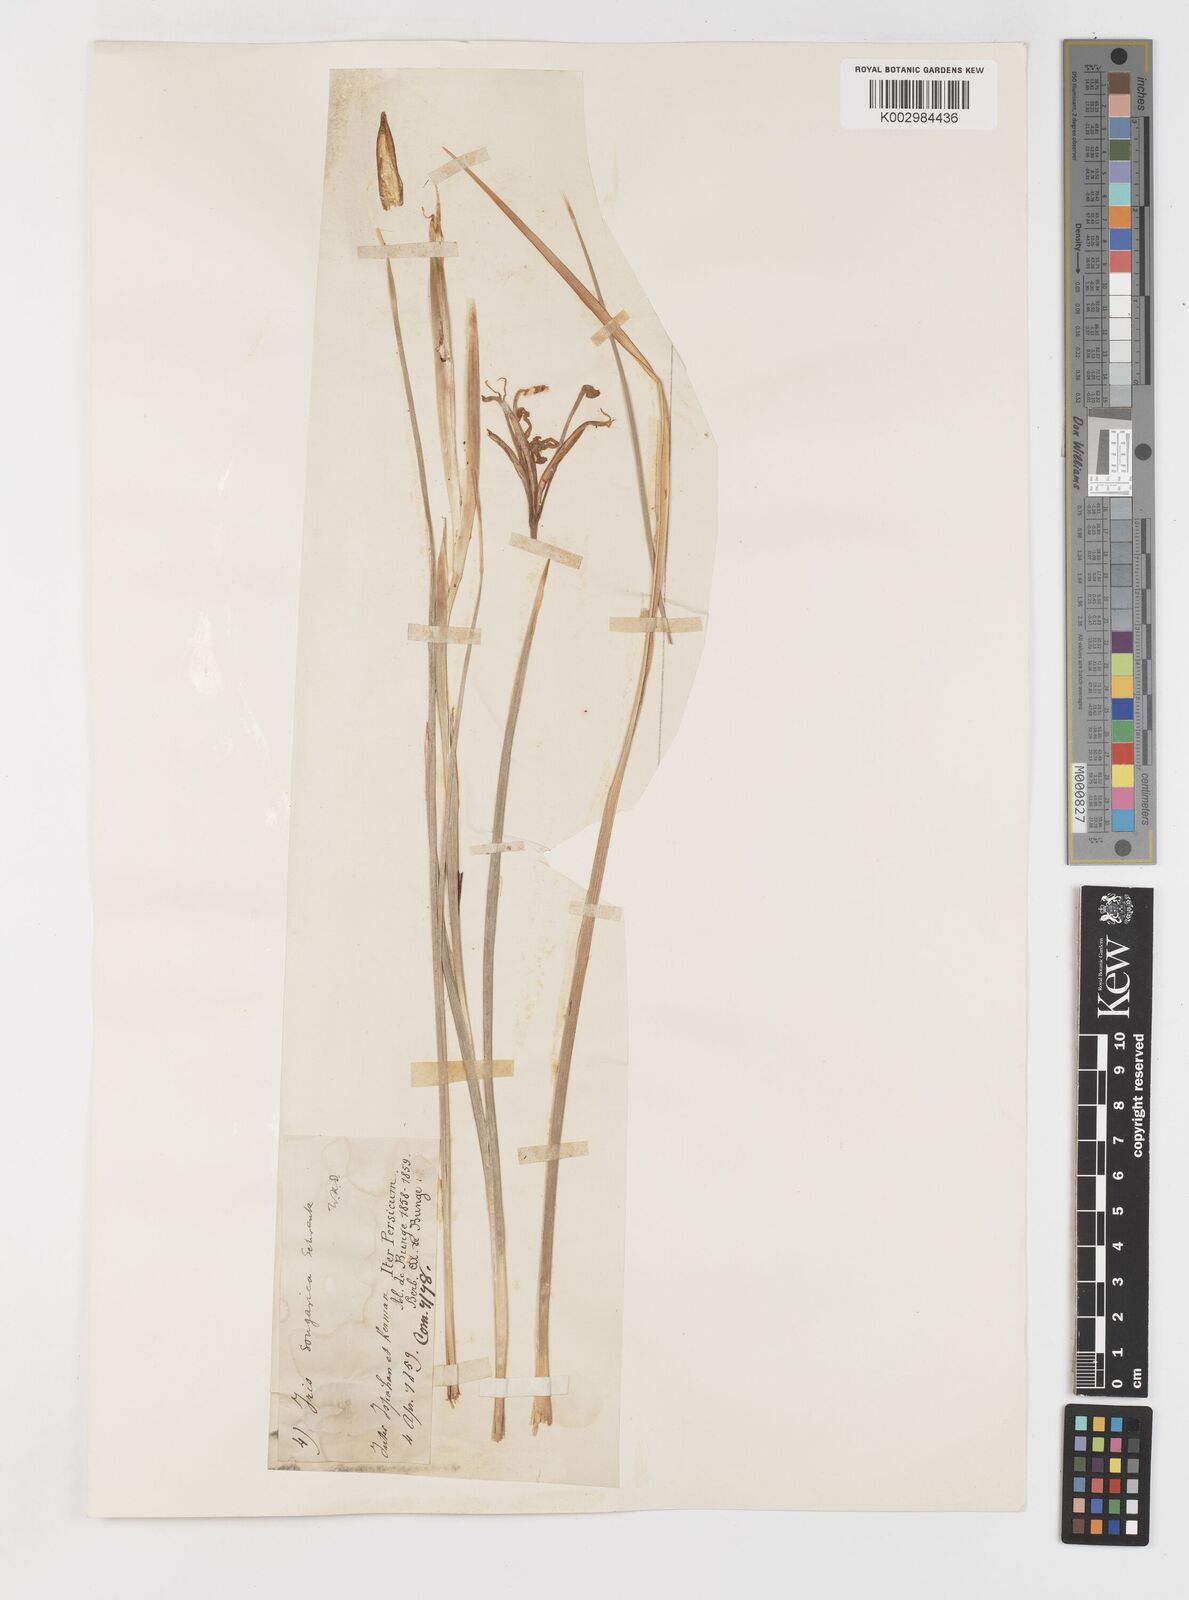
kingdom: Plantae
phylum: Tracheophyta
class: Liliopsida
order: Asparagales
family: Iridaceae
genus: Iris
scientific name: Iris songarica
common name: Songar iris
